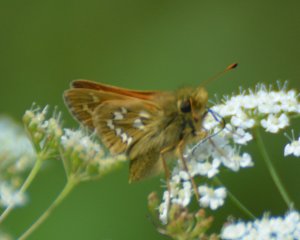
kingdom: Animalia
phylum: Arthropoda
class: Insecta
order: Lepidoptera
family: Hesperiidae
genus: Hesperia
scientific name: Hesperia comma
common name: Common Branded Skipper
